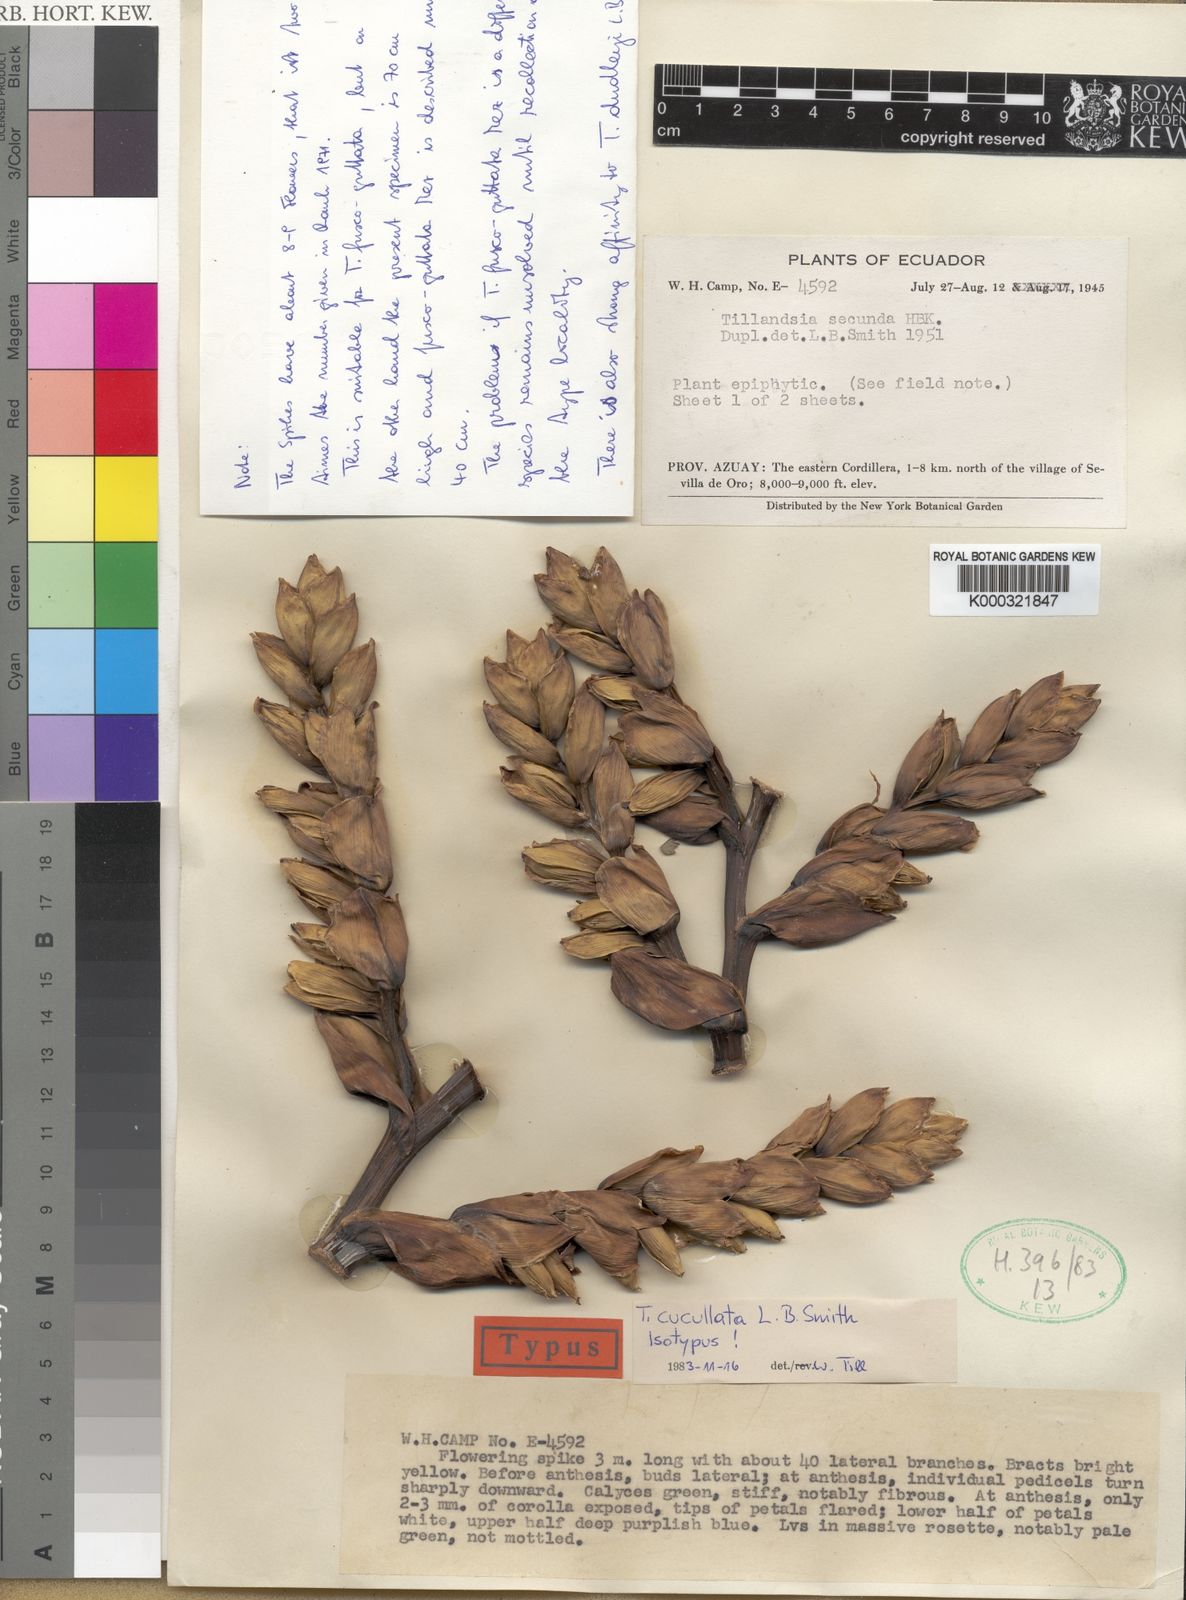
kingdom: Plantae
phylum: Tracheophyta
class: Liliopsida
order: Poales
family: Bromeliaceae
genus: Tillandsia
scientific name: Tillandsia cucullata
